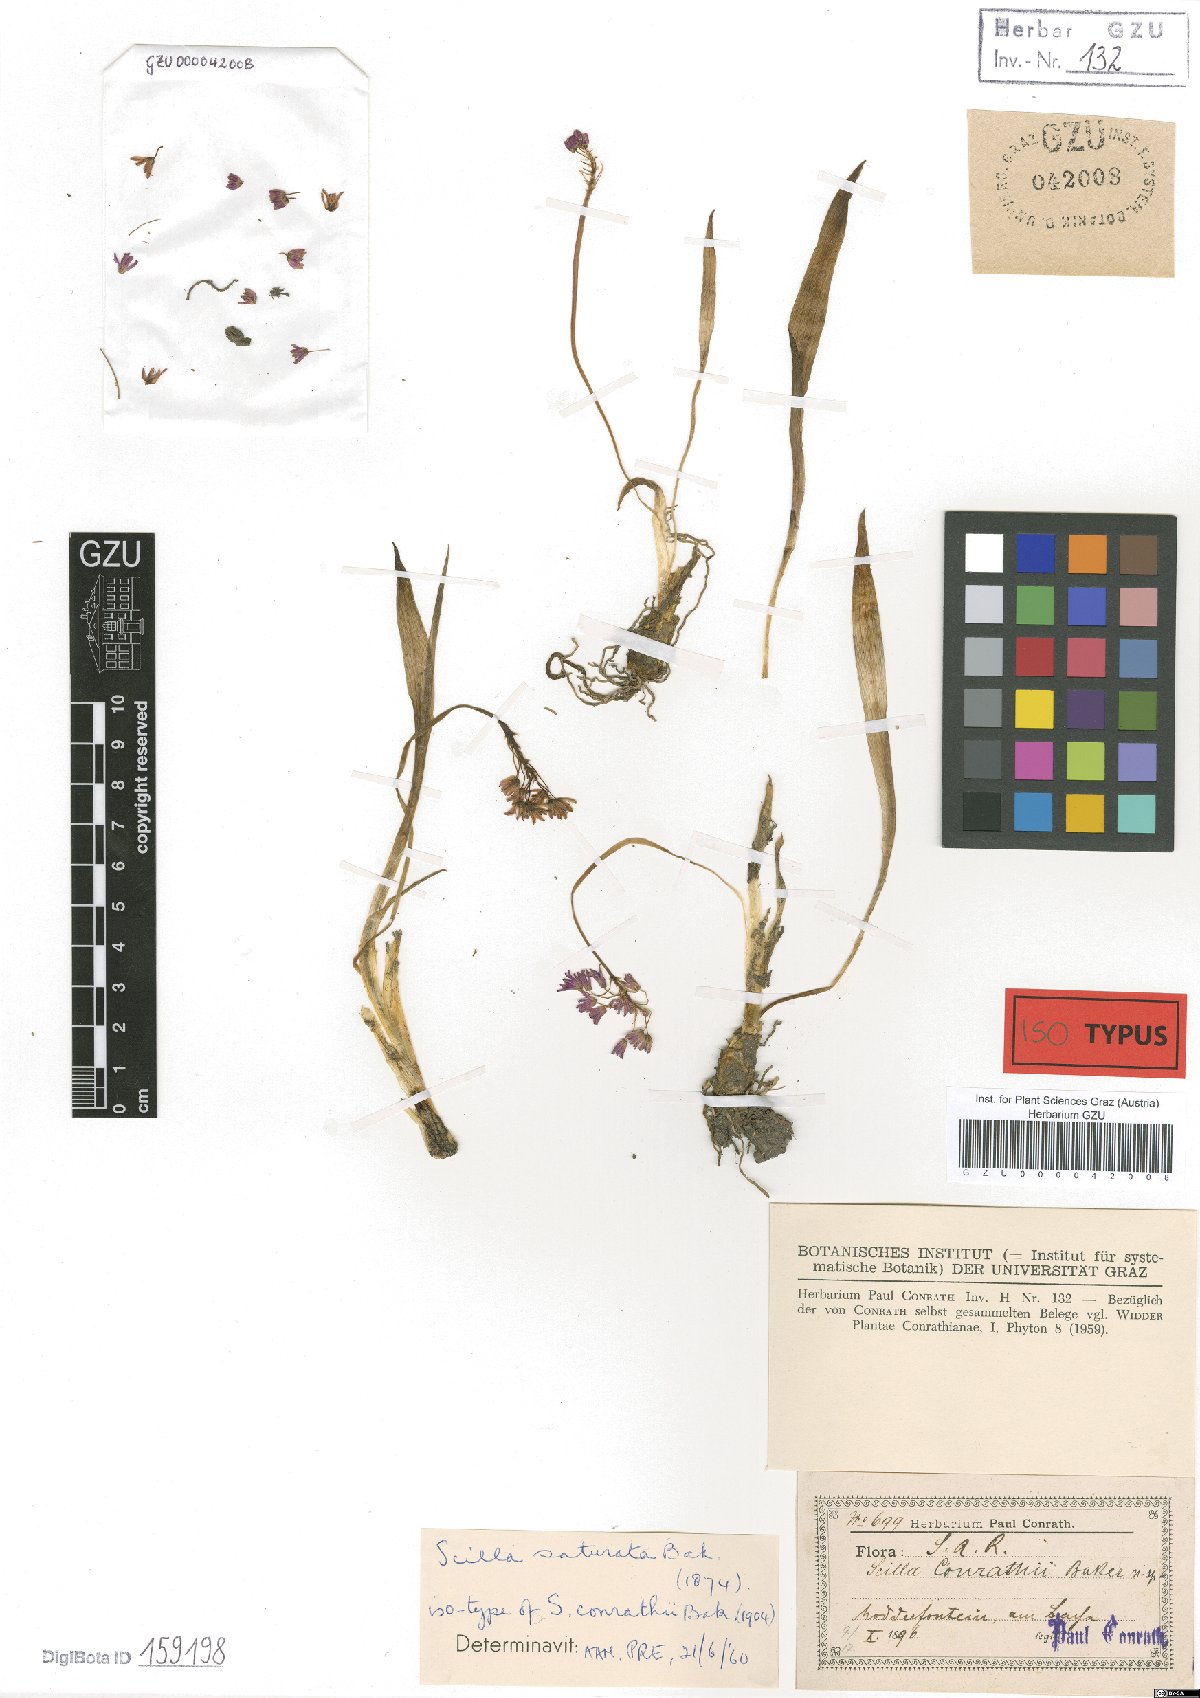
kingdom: Plantae
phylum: Tracheophyta
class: Liliopsida
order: Asparagales
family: Asparagaceae
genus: Ledebouria
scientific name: Ledebouria cooperi
